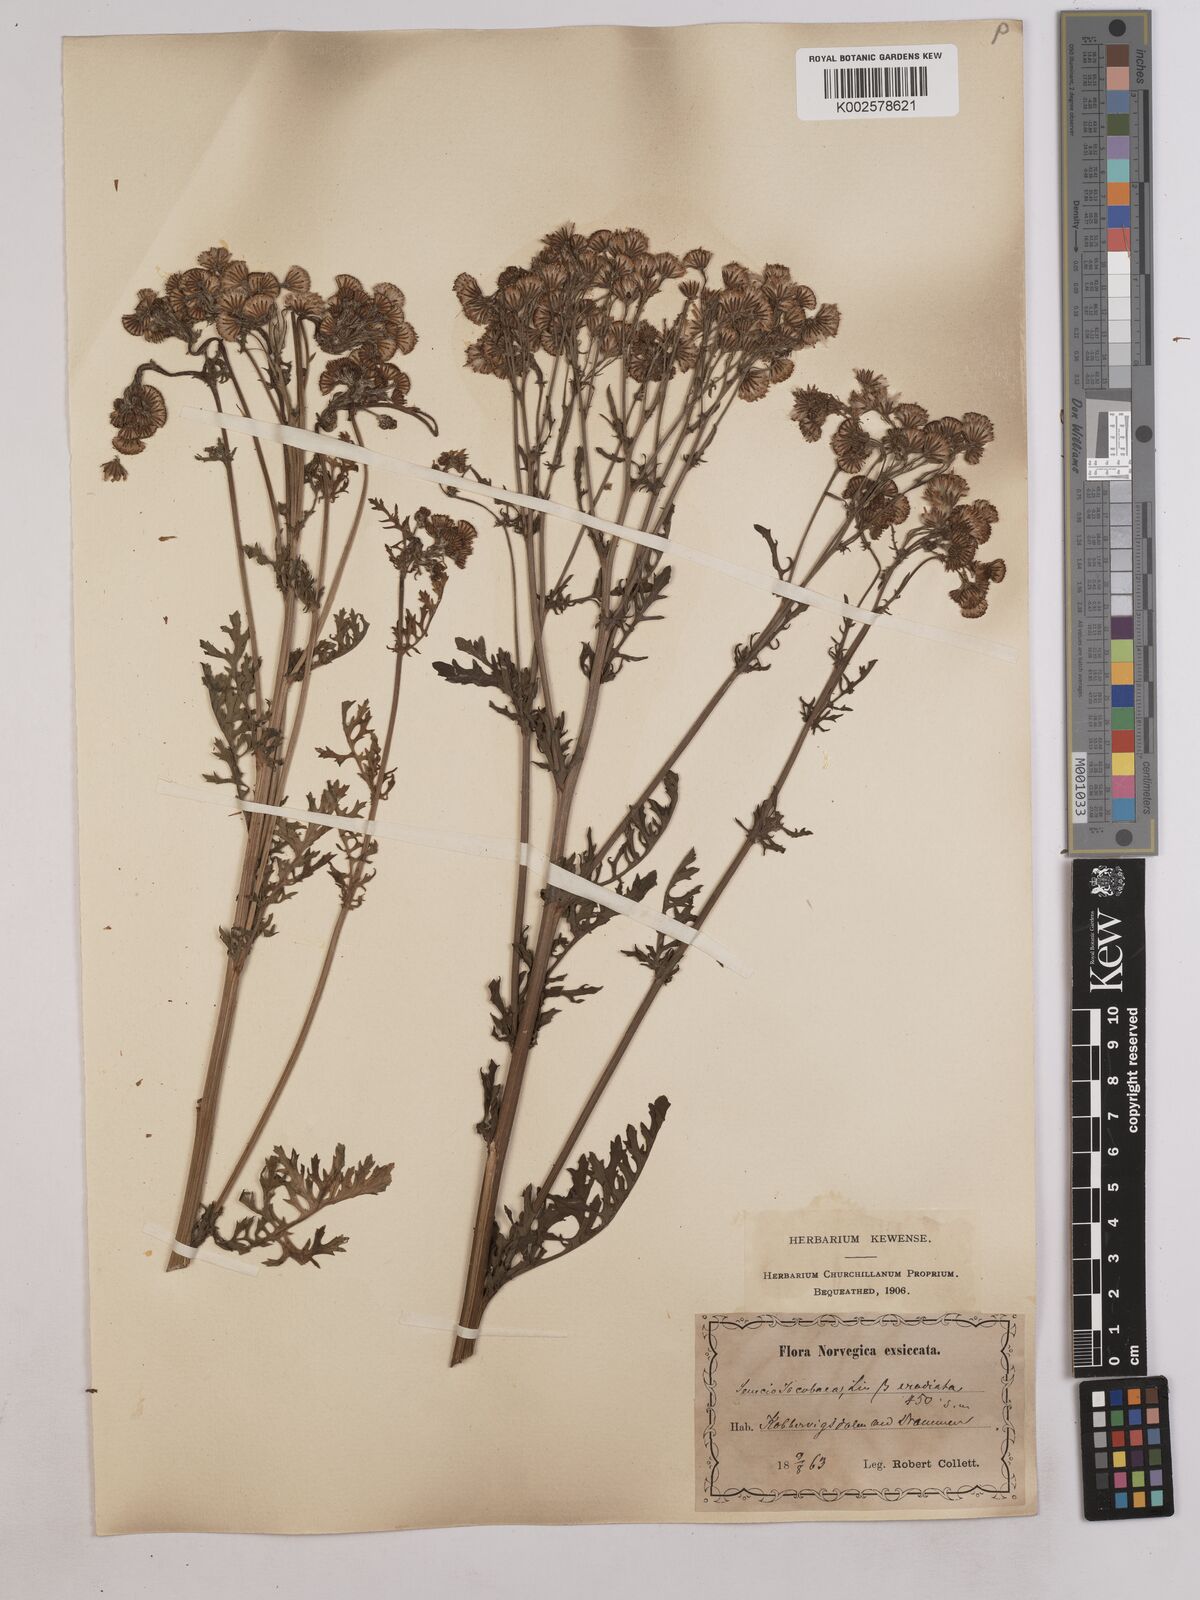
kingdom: Plantae
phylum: Tracheophyta
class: Magnoliopsida
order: Asterales
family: Asteraceae
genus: Jacobaea
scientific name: Jacobaea vulgaris
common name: Stinking willie
